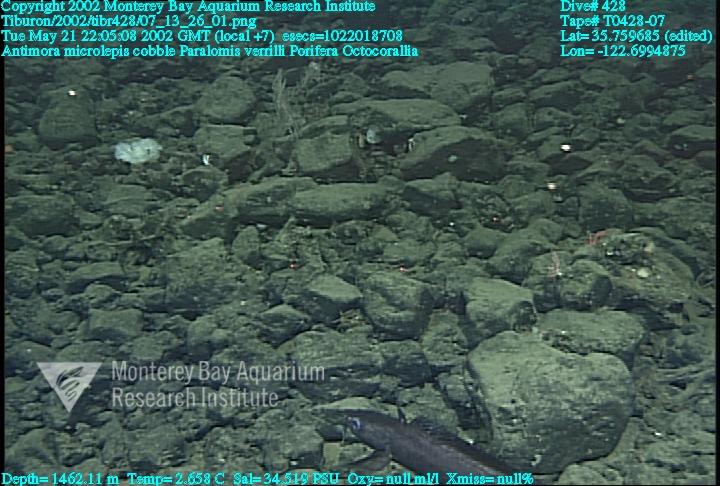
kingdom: Animalia
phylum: Porifera
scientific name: Porifera
